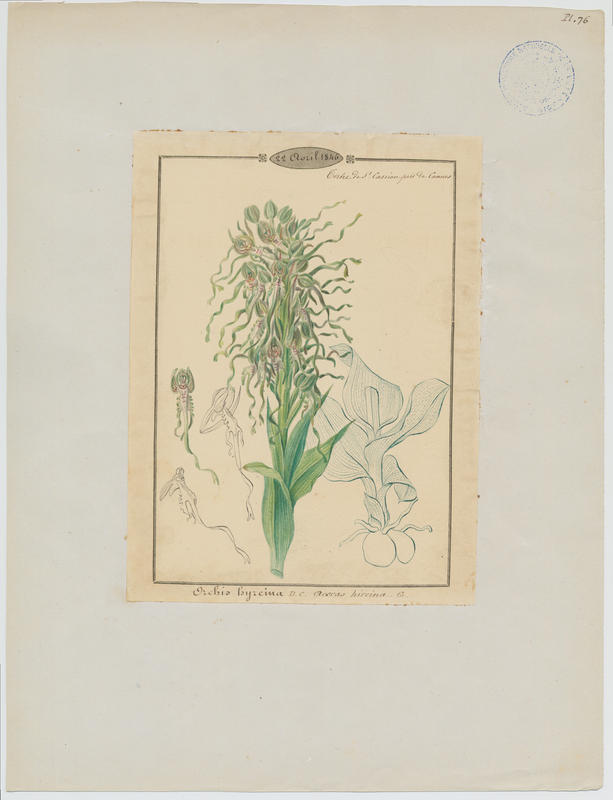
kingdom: Plantae
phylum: Tracheophyta
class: Liliopsida
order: Asparagales
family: Orchidaceae
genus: Himantoglossum
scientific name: Himantoglossum hircinum
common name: Lizard orchid
